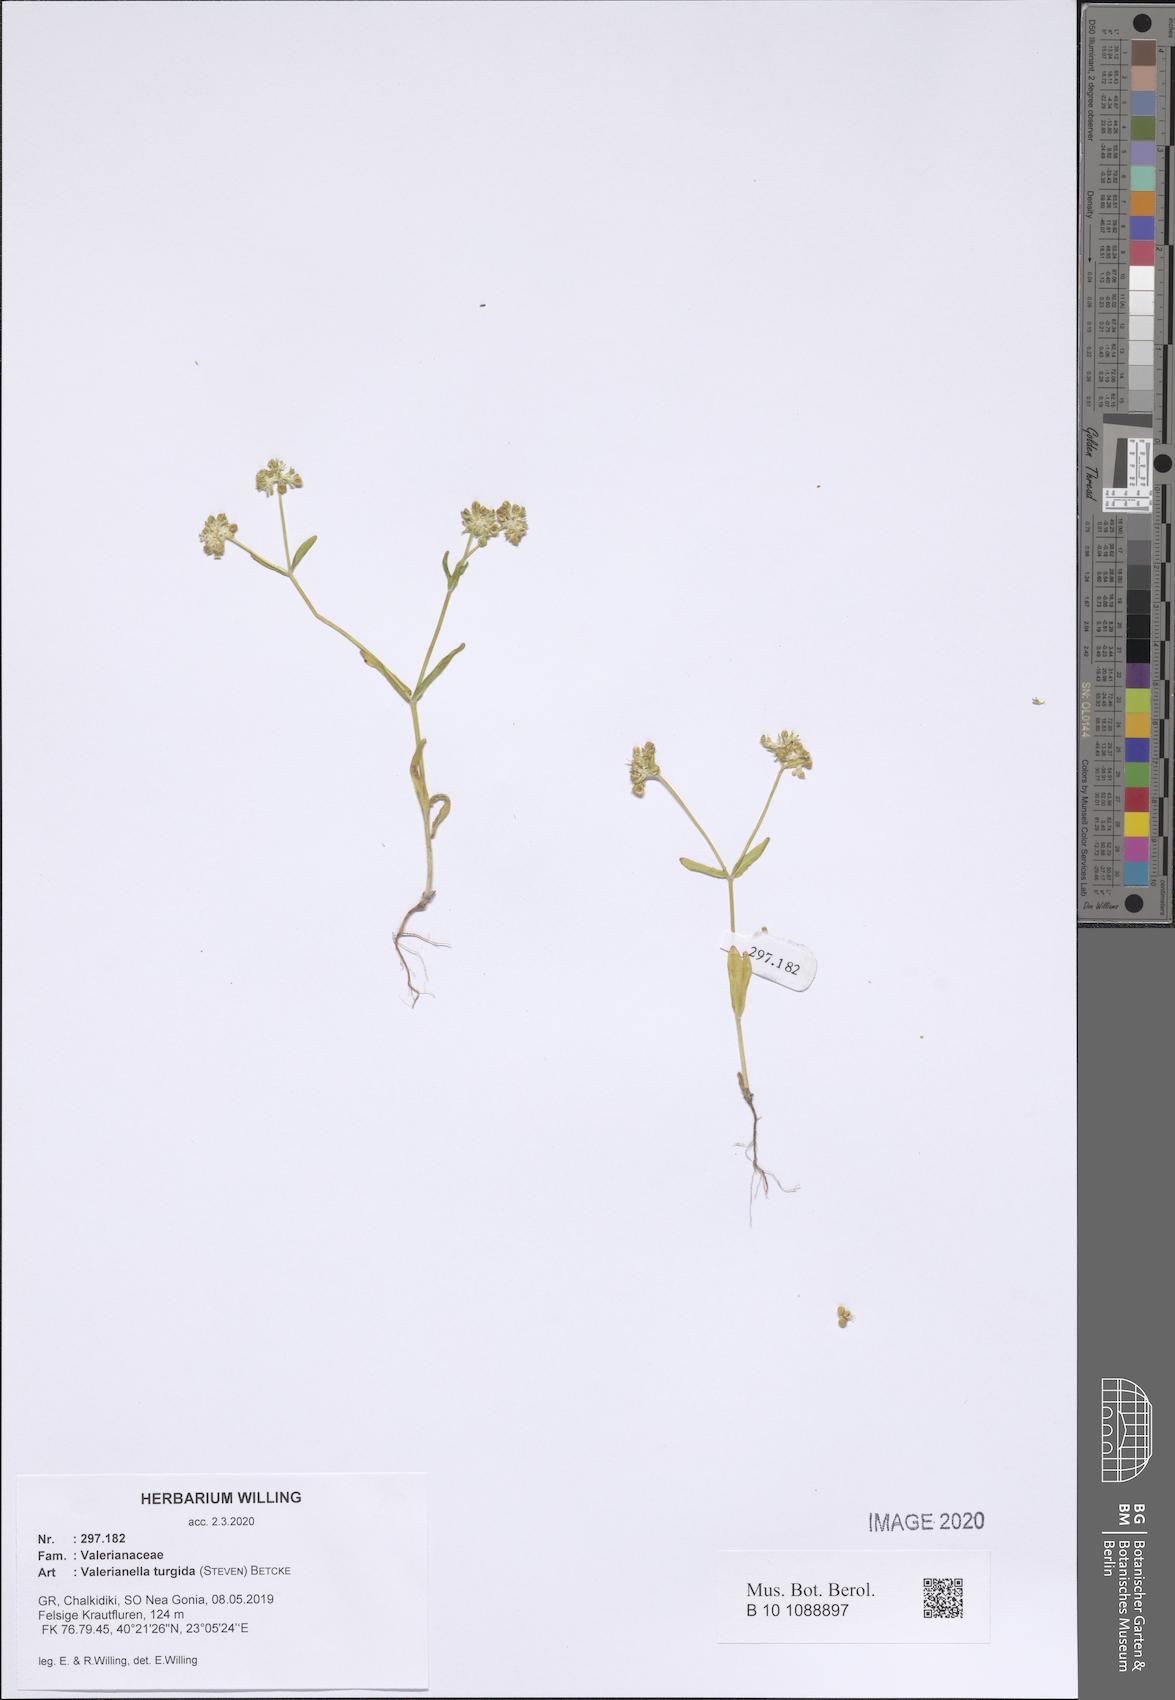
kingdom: Plantae
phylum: Tracheophyta
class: Magnoliopsida
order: Dipsacales
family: Caprifoliaceae
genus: Valerianella
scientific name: Valerianella turgida
